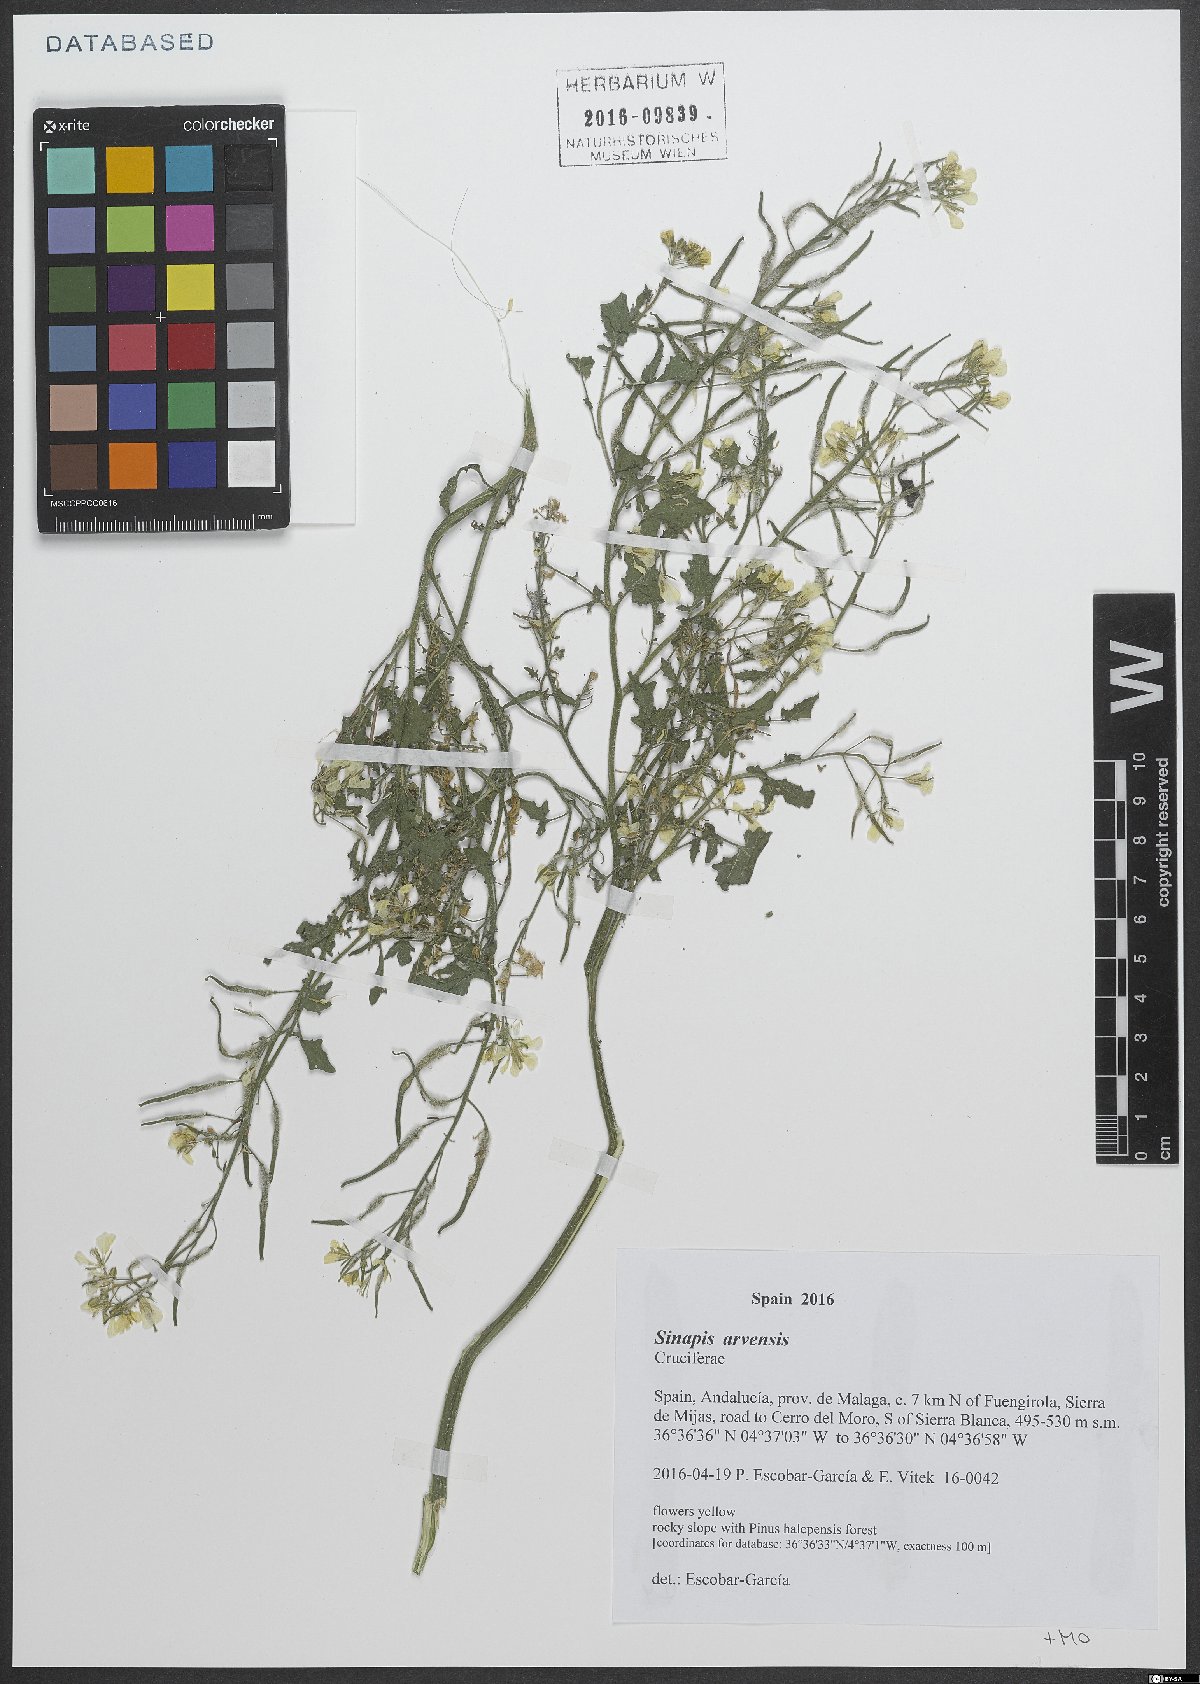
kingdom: Plantae
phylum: Tracheophyta
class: Magnoliopsida
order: Brassicales
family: Brassicaceae
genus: Sinapis
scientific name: Sinapis arvensis
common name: Charlock
